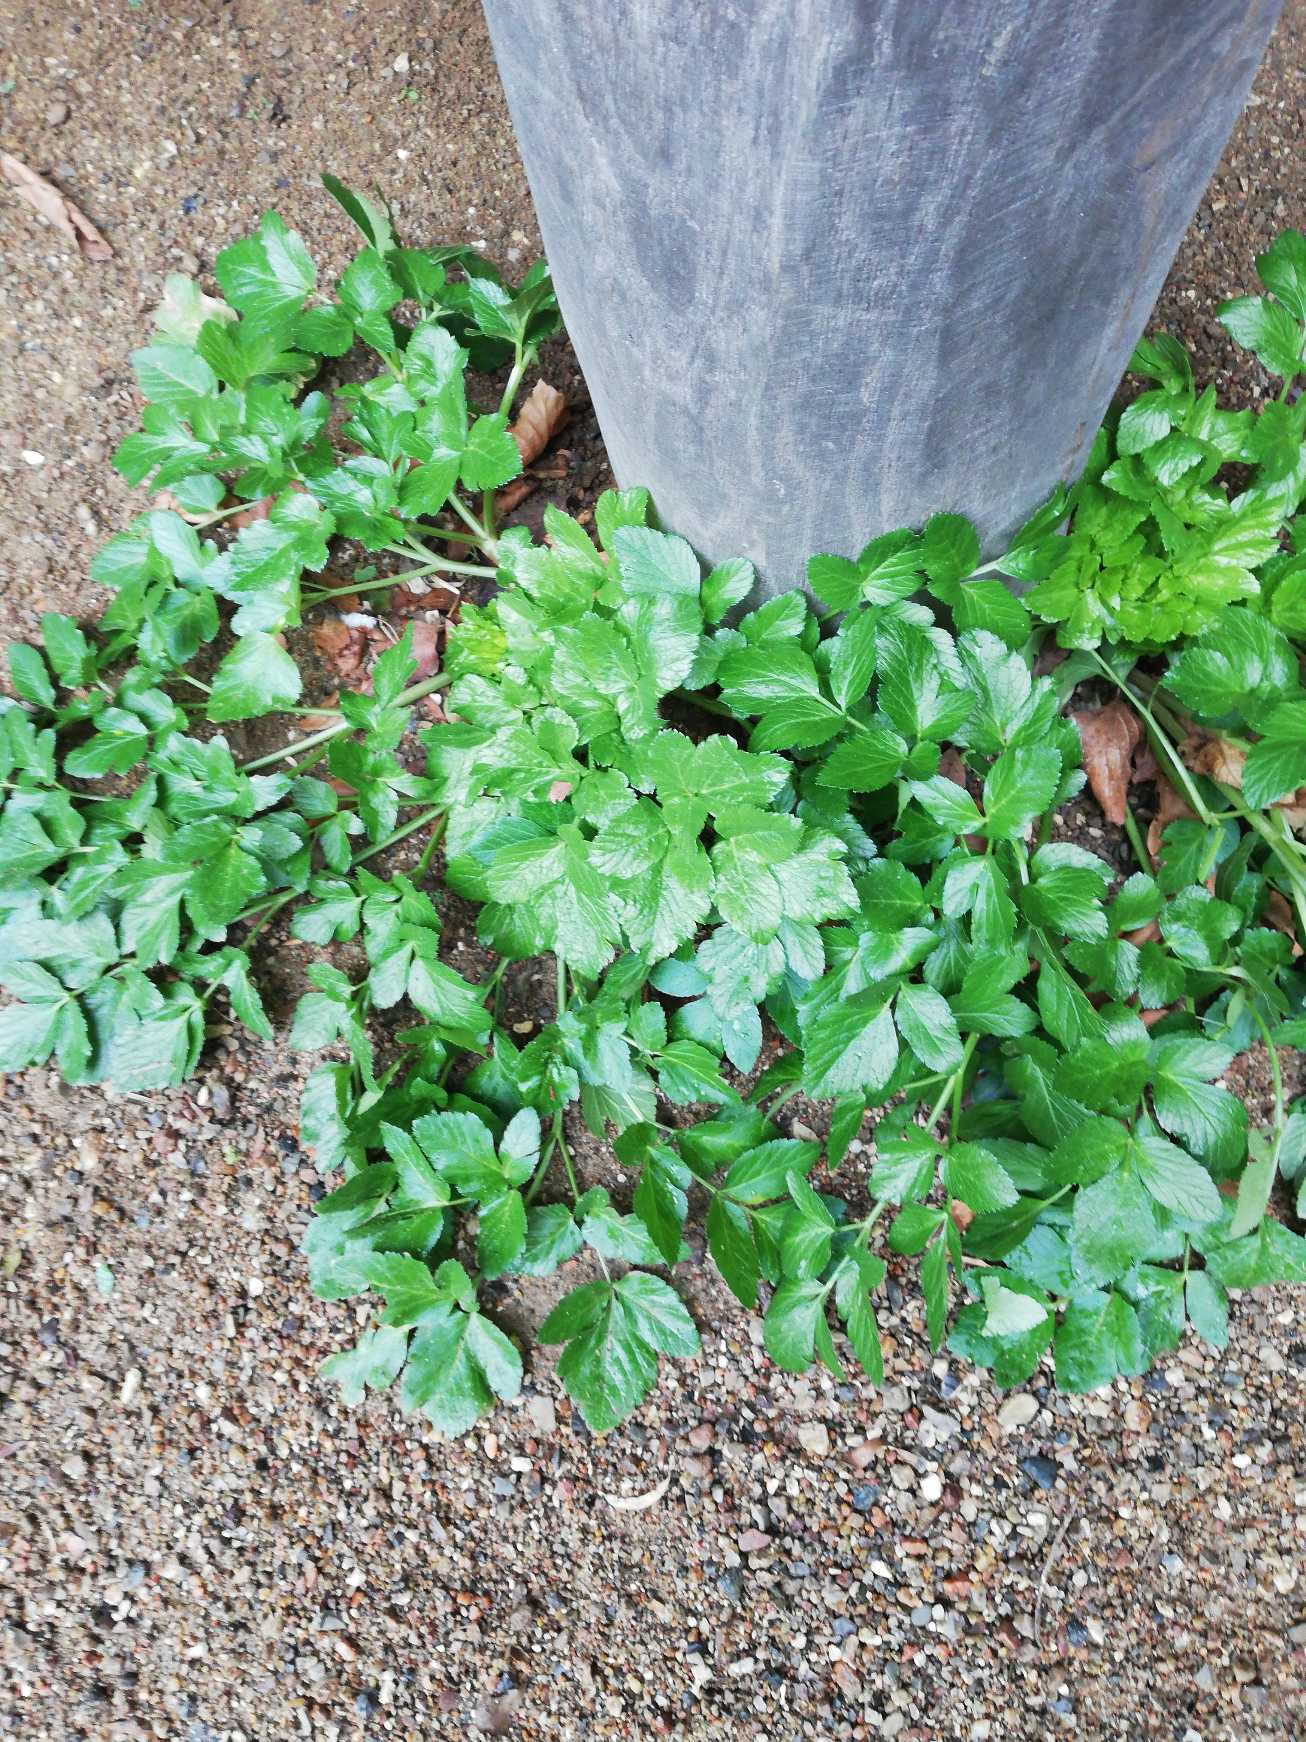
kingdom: Plantae
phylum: Tracheophyta
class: Magnoliopsida
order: Apiales
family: Apiaceae
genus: Aegopodium
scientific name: Aegopodium podagraria
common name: Skvalderkål
